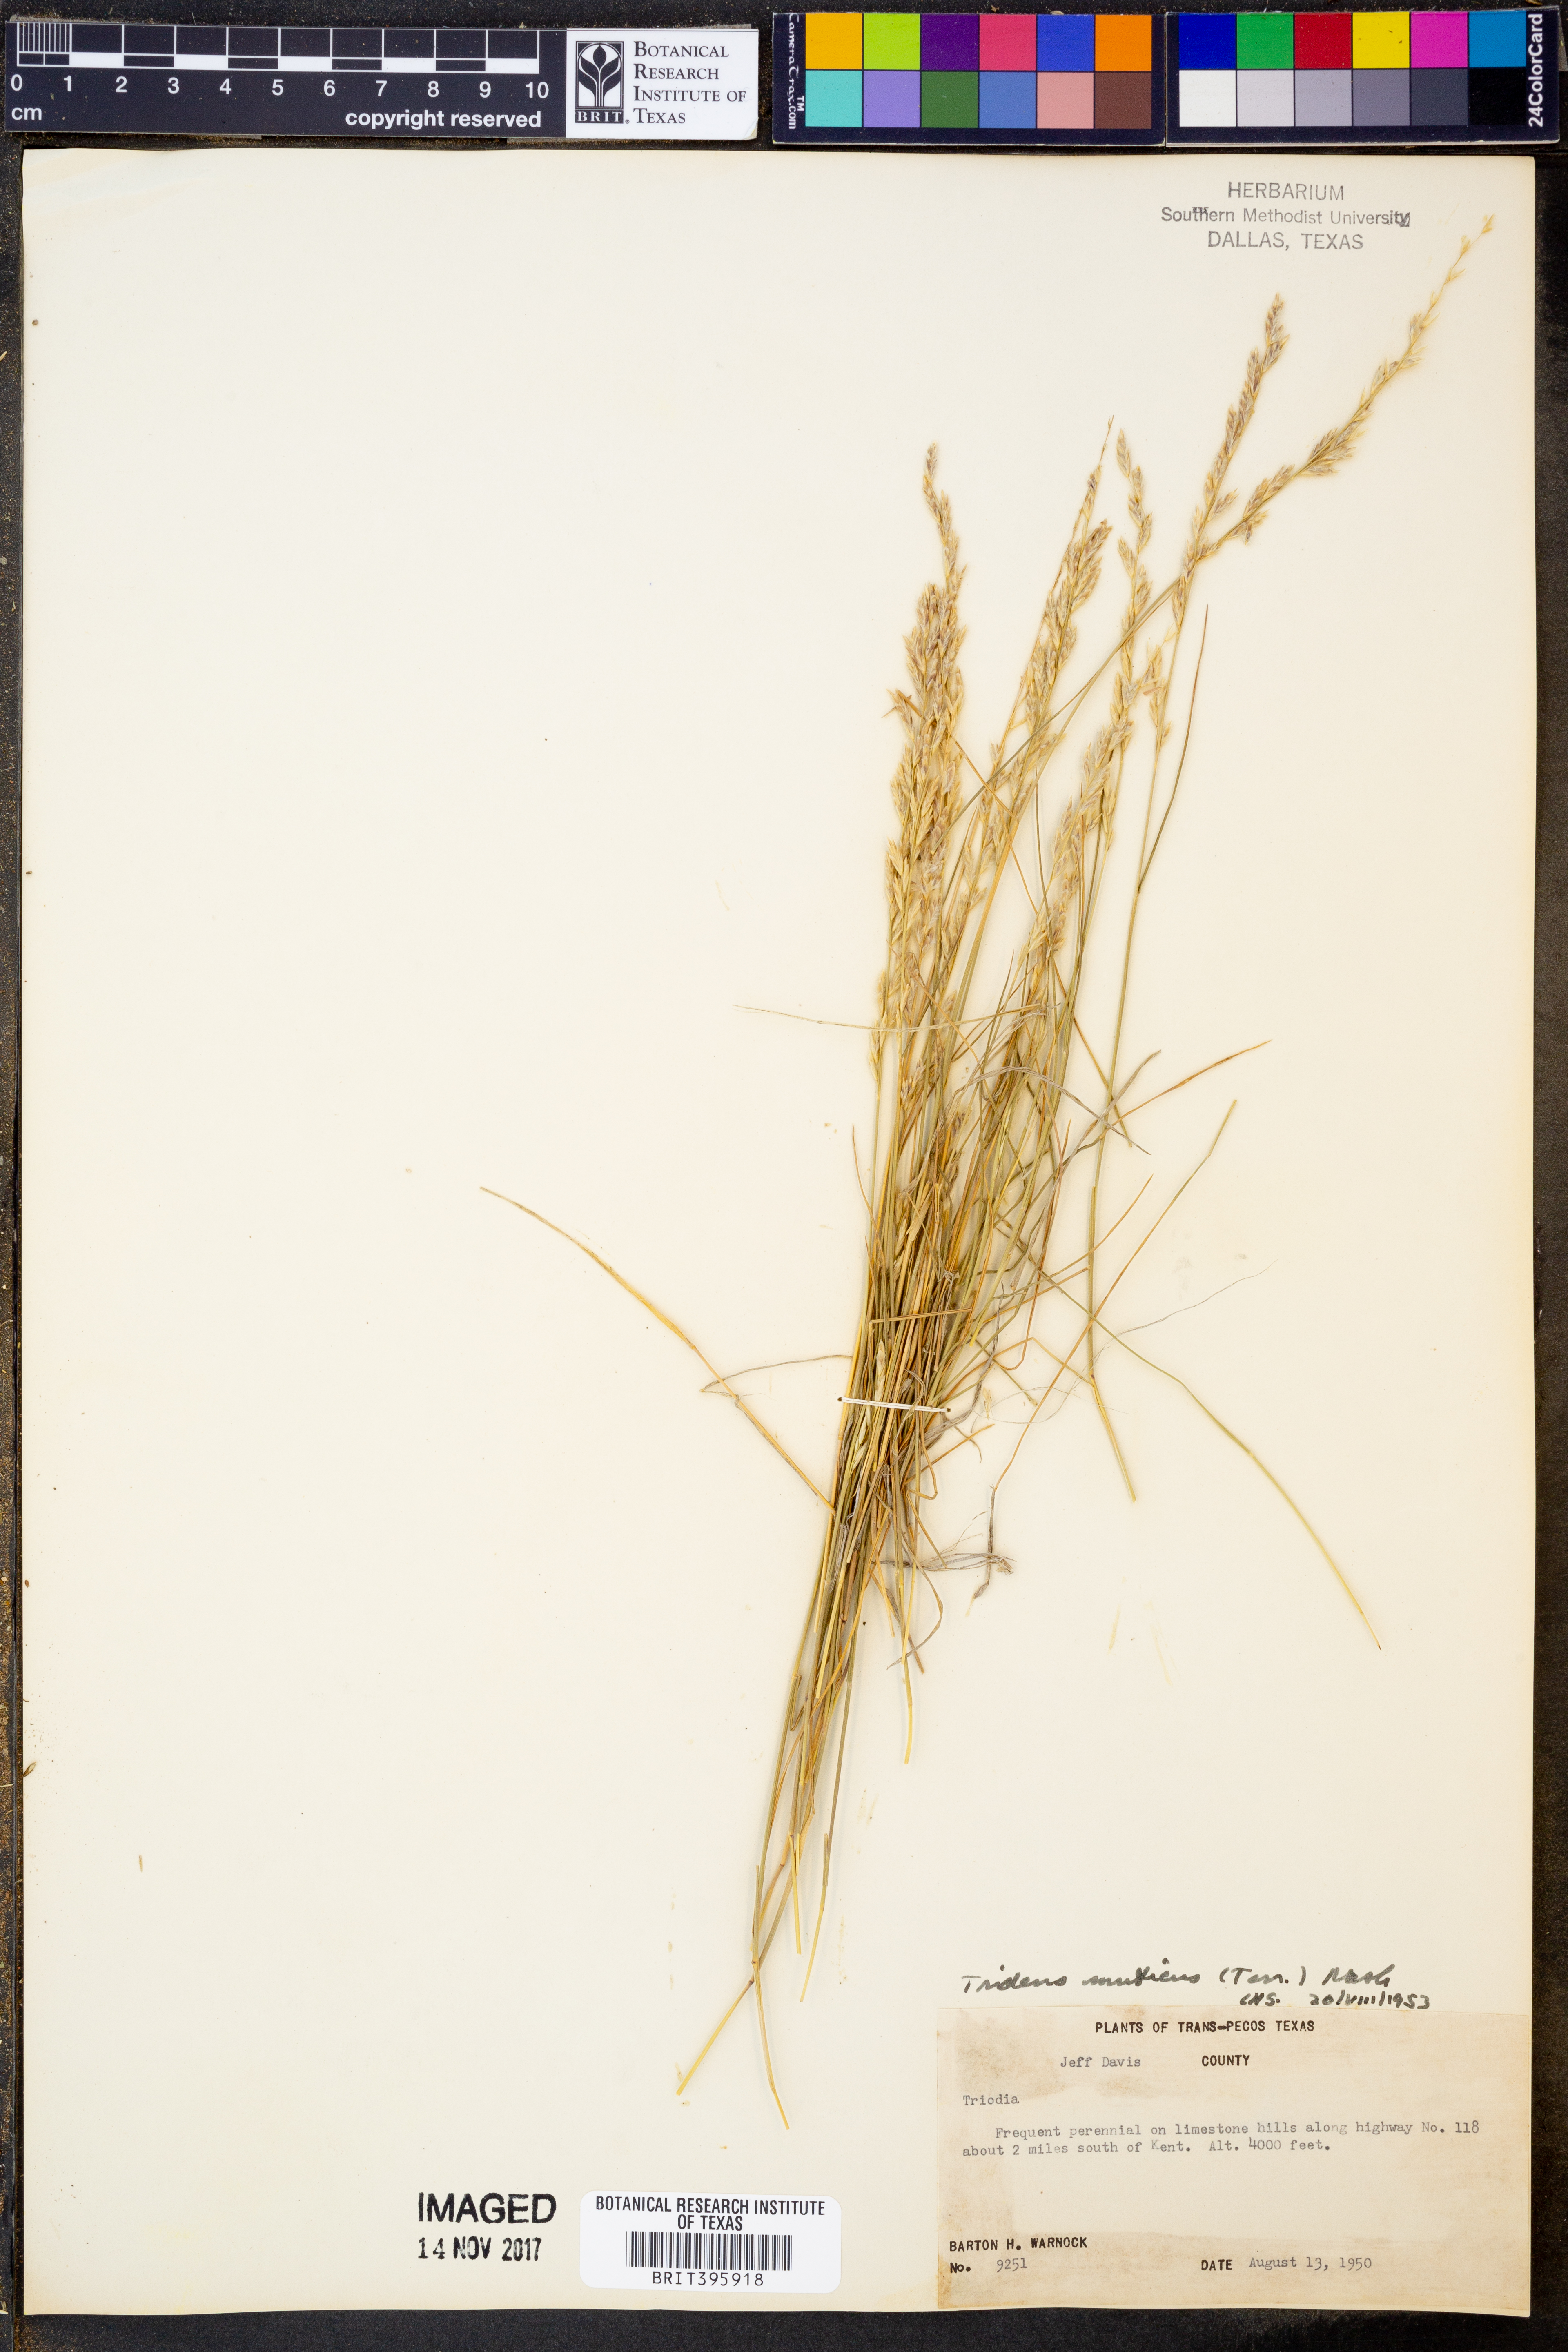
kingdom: Plantae
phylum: Tracheophyta
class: Liliopsida
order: Poales
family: Poaceae
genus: Tridentopsis
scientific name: Tridentopsis mutica
